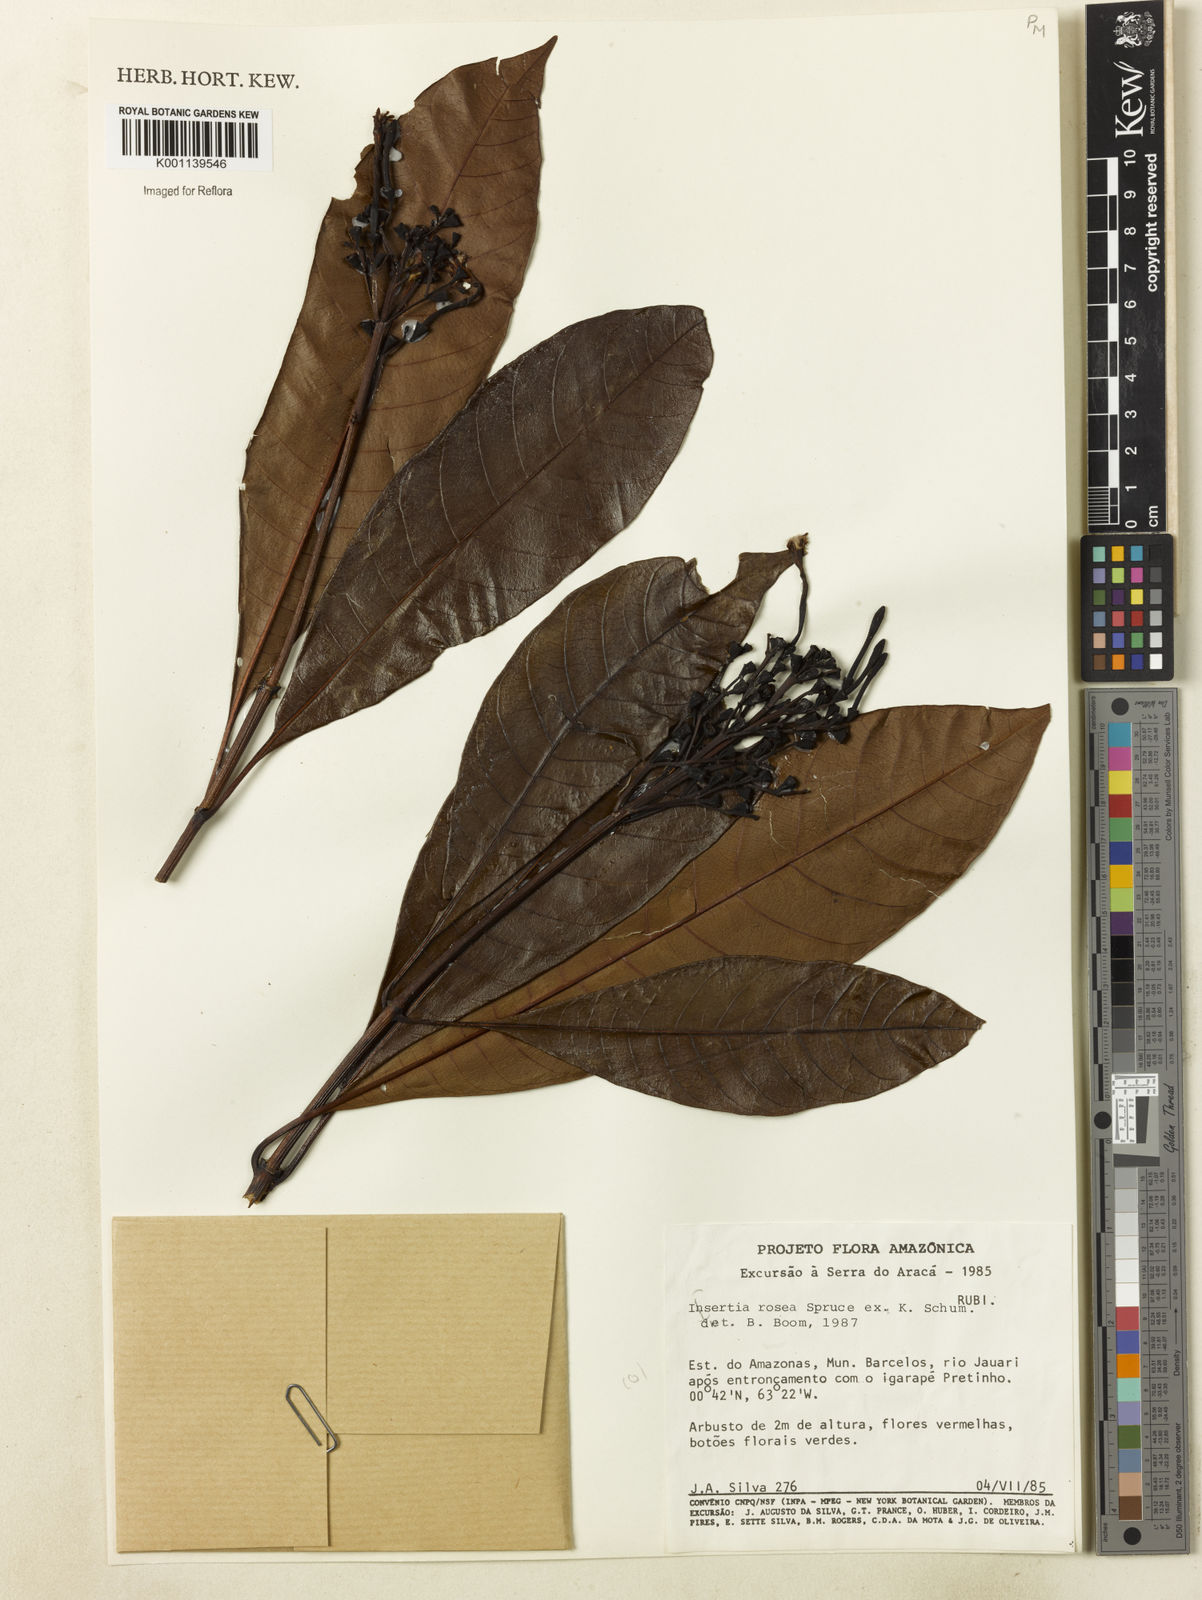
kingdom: Plantae
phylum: Tracheophyta
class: Magnoliopsida
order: Gentianales
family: Rubiaceae
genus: Isertia
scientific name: Isertia rosea
